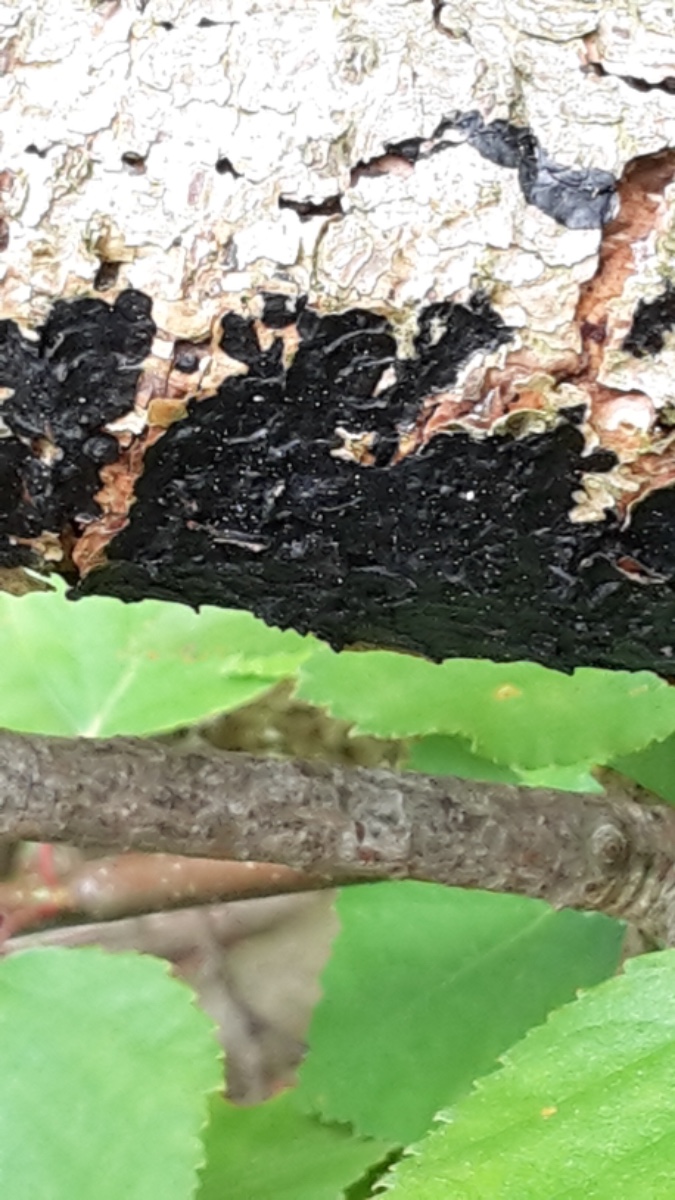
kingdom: Fungi
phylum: Basidiomycota
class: Agaricomycetes
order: Auriculariales
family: Auriculariaceae
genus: Exidia
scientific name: Exidia pithya
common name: gran-bævretop
